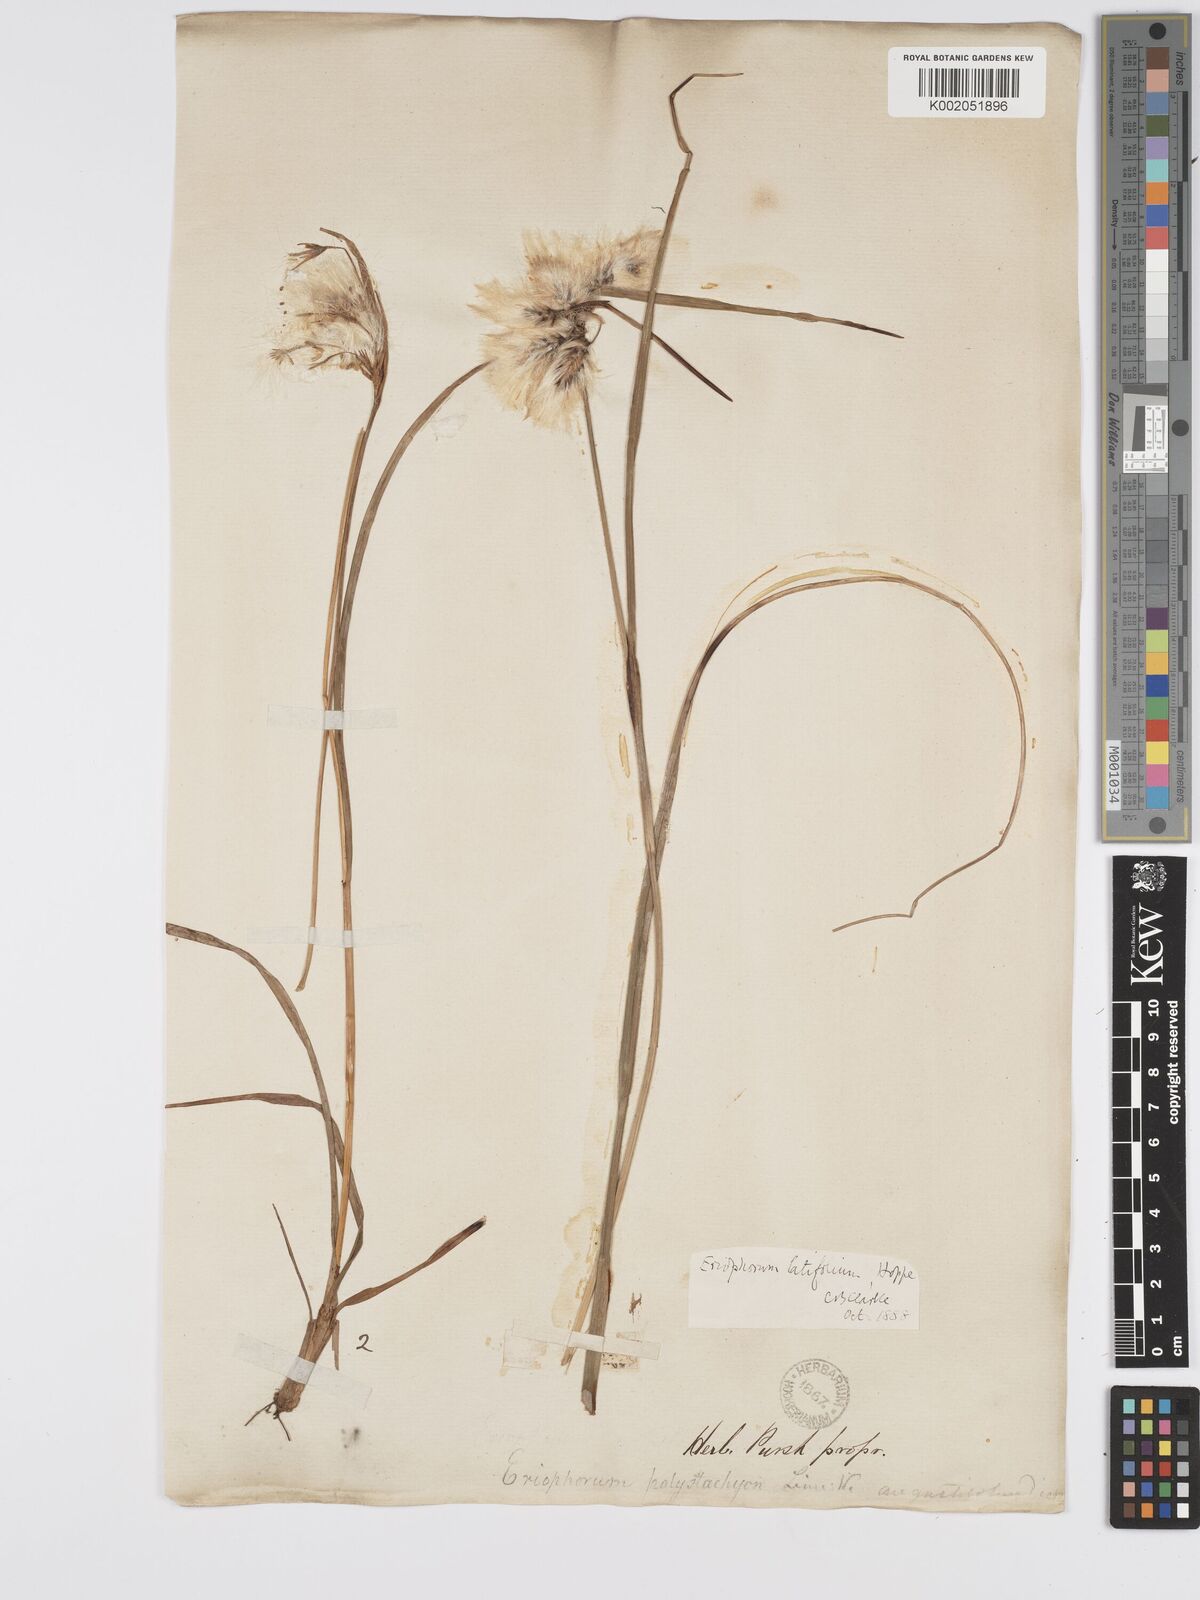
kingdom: Plantae
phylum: Tracheophyta
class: Liliopsida
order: Poales
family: Cyperaceae
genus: Eriophorum
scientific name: Eriophorum latifolium
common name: Broad-leaved cottongrass
